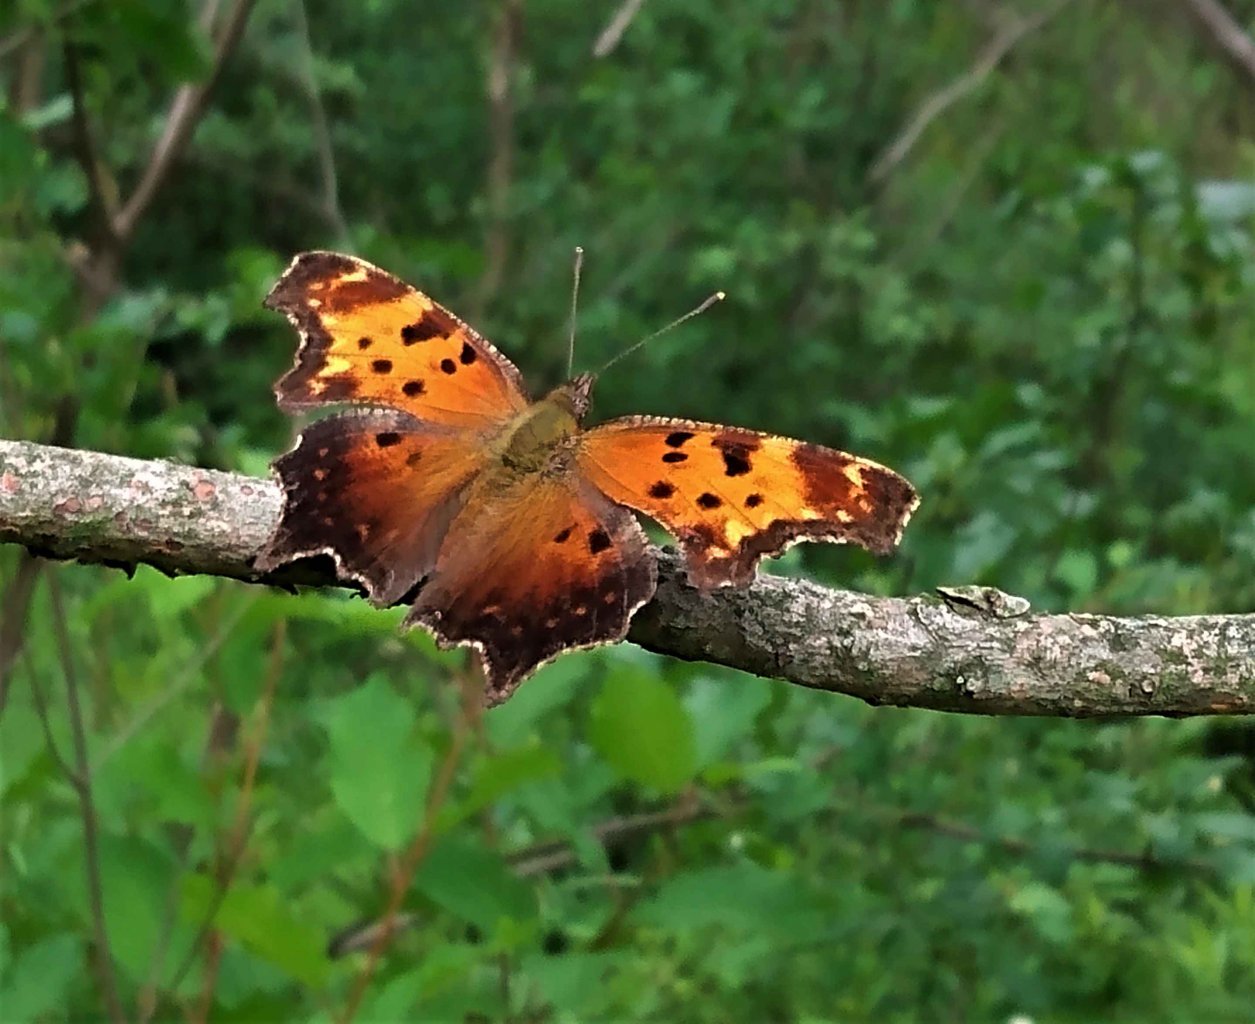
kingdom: Animalia
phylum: Arthropoda
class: Insecta
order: Lepidoptera
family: Nymphalidae
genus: Polygonia
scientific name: Polygonia progne
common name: Gray Comma
